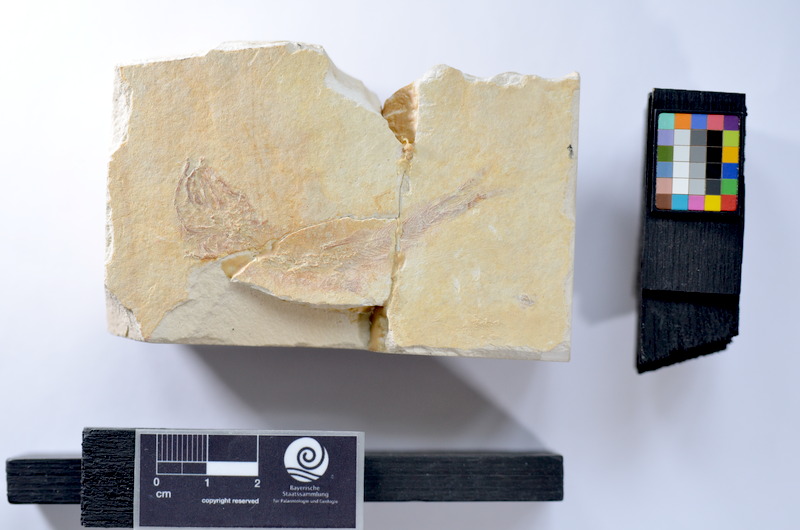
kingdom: Animalia
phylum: Chordata
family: Ascalaboidae
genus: Tharsis
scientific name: Tharsis dubius
